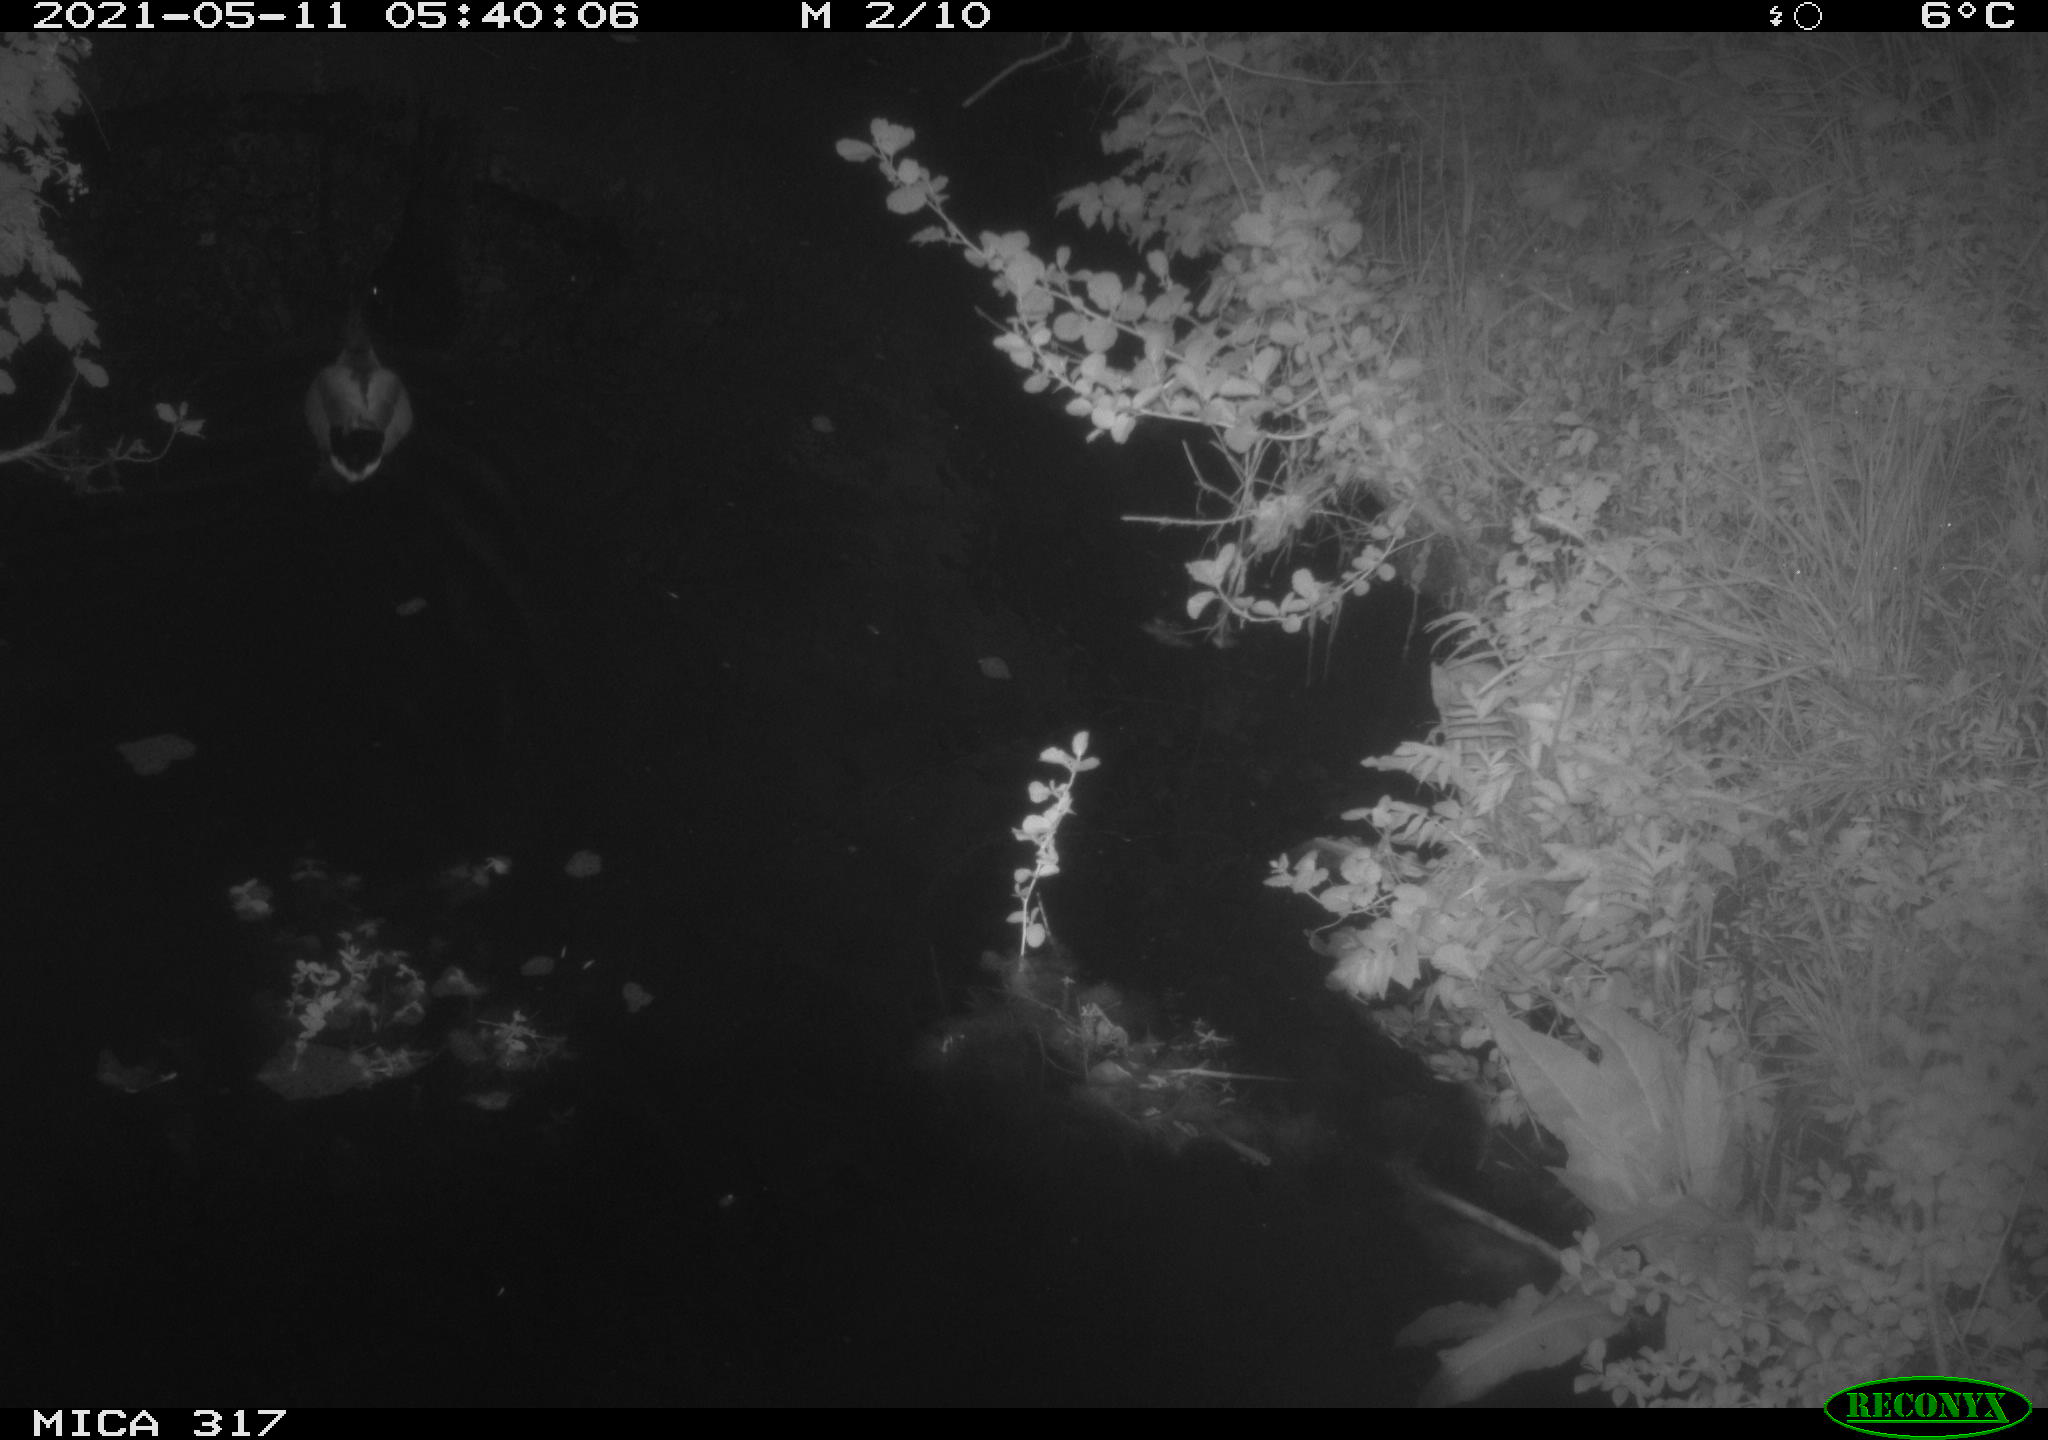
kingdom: Animalia
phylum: Chordata
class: Aves
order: Anseriformes
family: Anatidae
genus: Anas
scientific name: Anas
